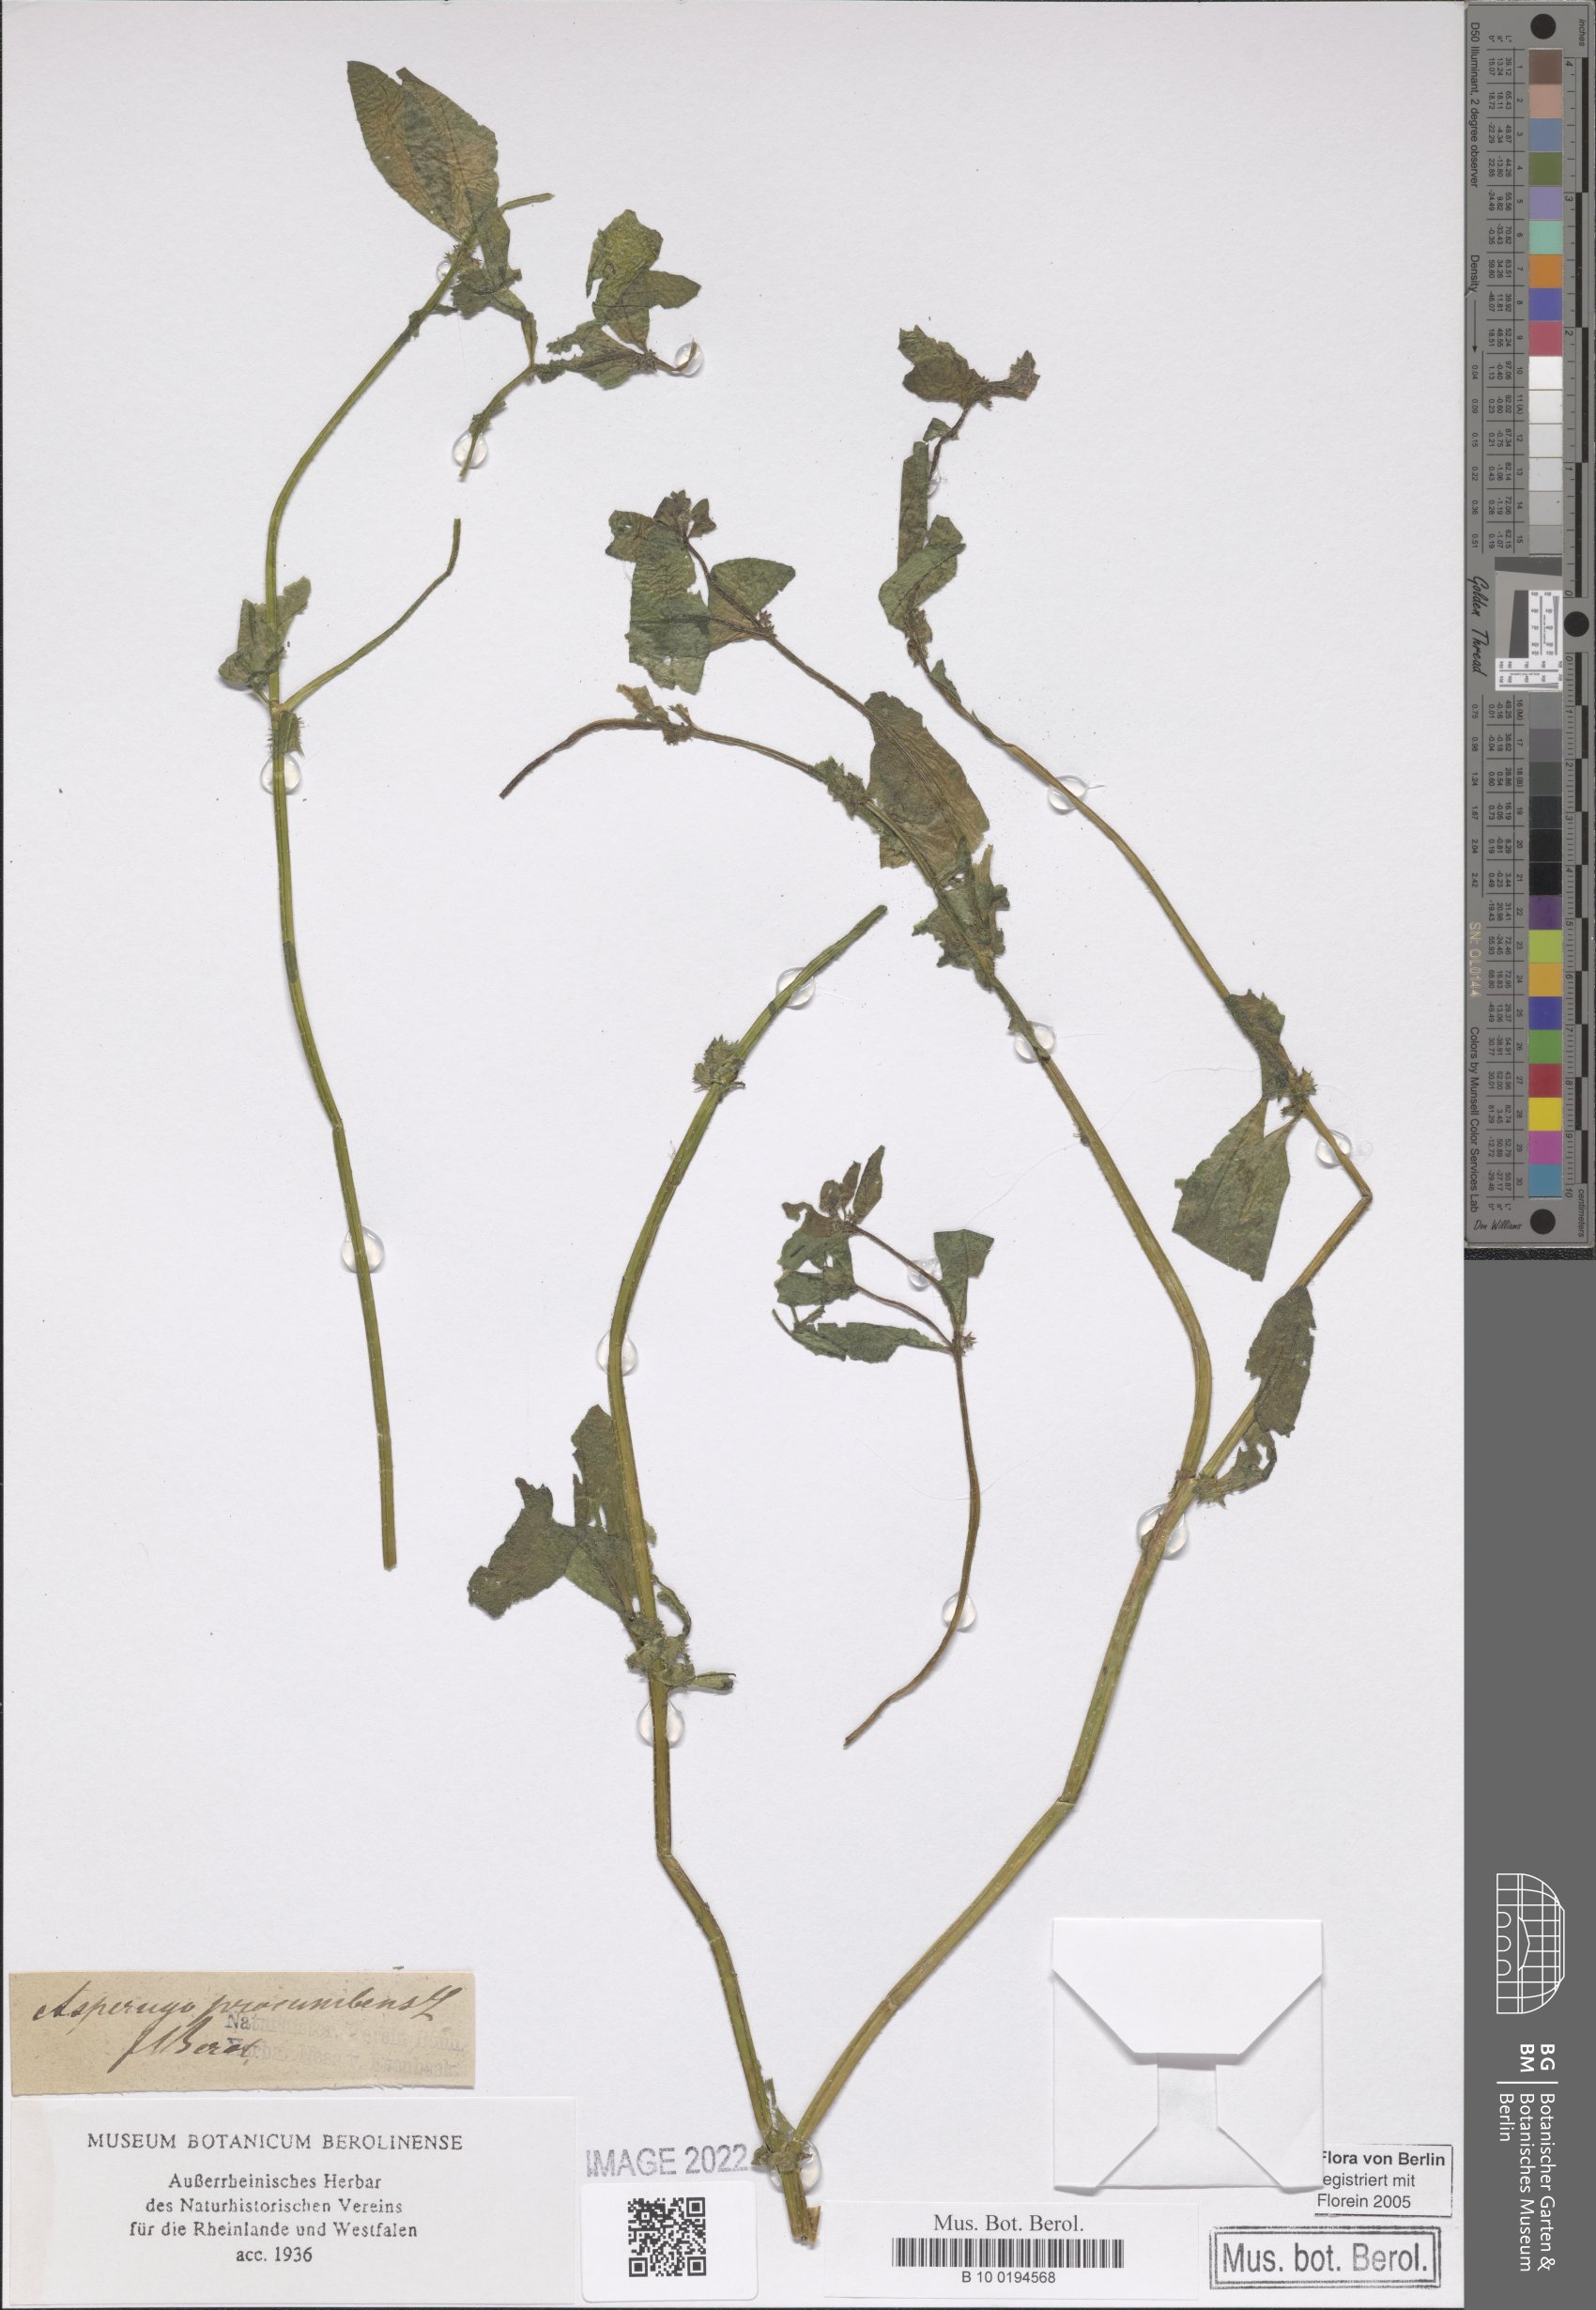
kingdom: Plantae
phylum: Tracheophyta
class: Magnoliopsida
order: Boraginales
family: Boraginaceae
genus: Asperugo
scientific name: Asperugo procumbens
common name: Madwort
